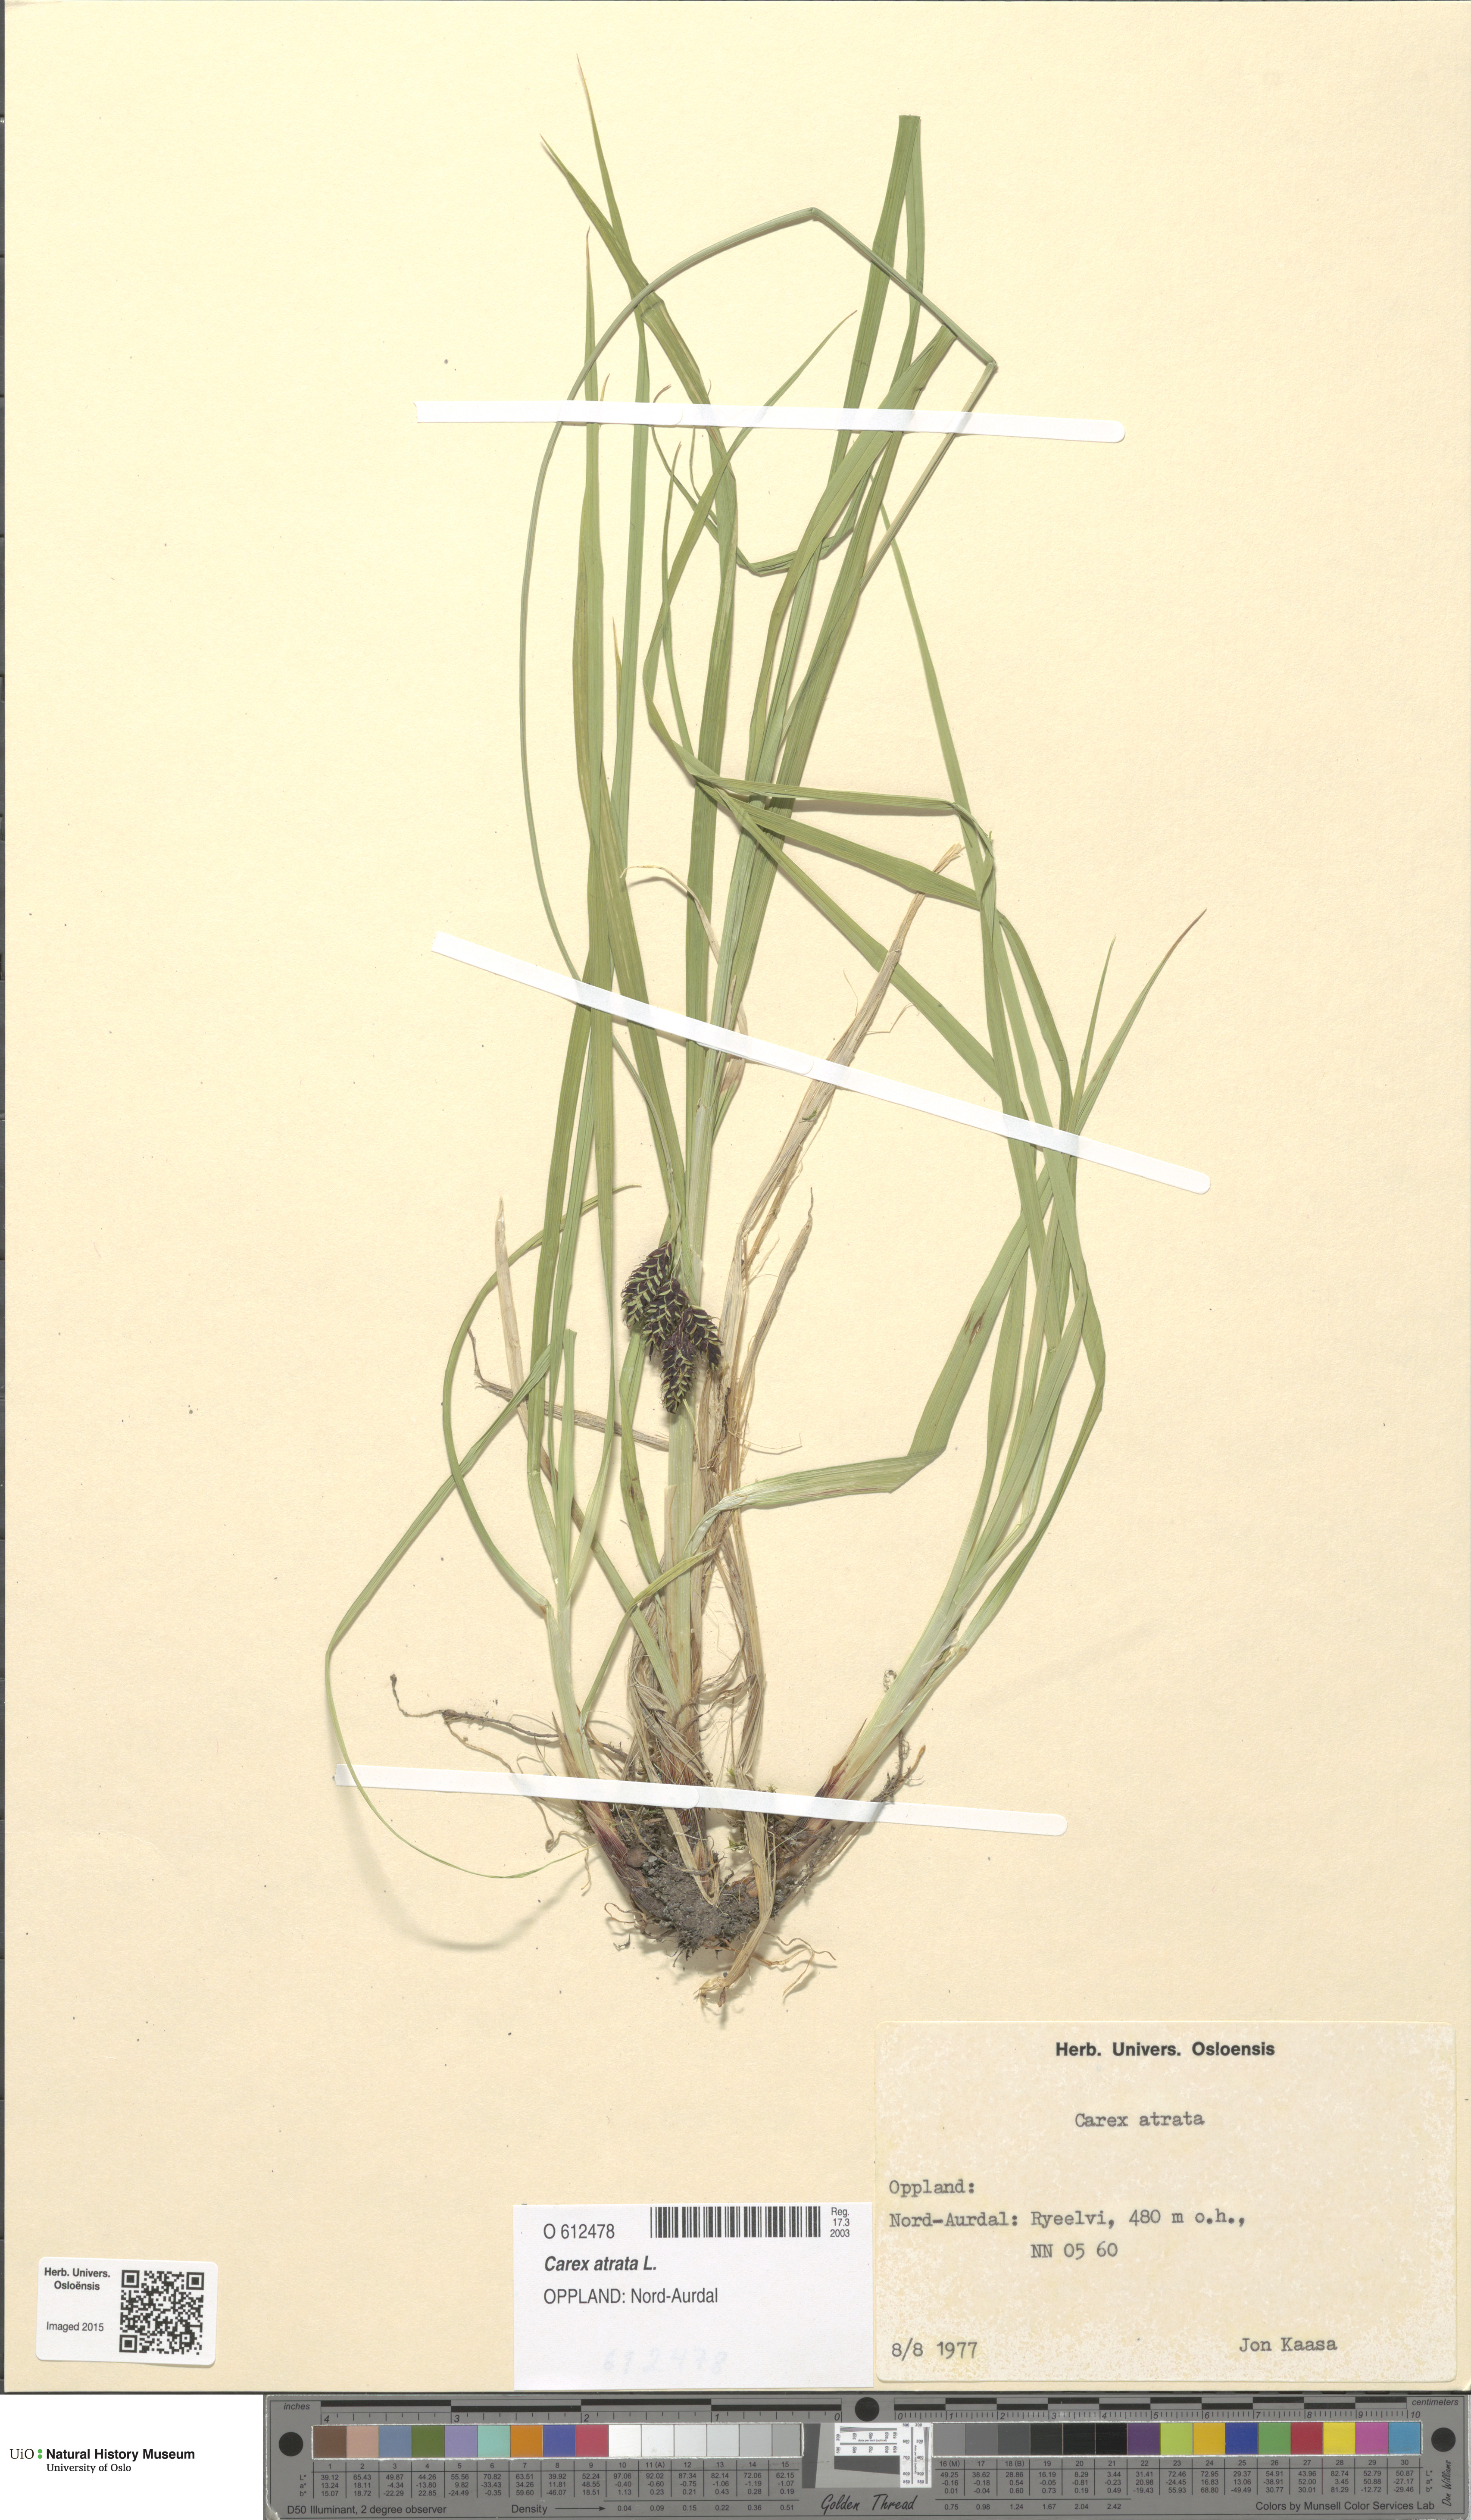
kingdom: Plantae
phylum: Tracheophyta
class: Liliopsida
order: Poales
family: Cyperaceae
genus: Carex
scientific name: Carex atrata
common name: Black alpine sedge
